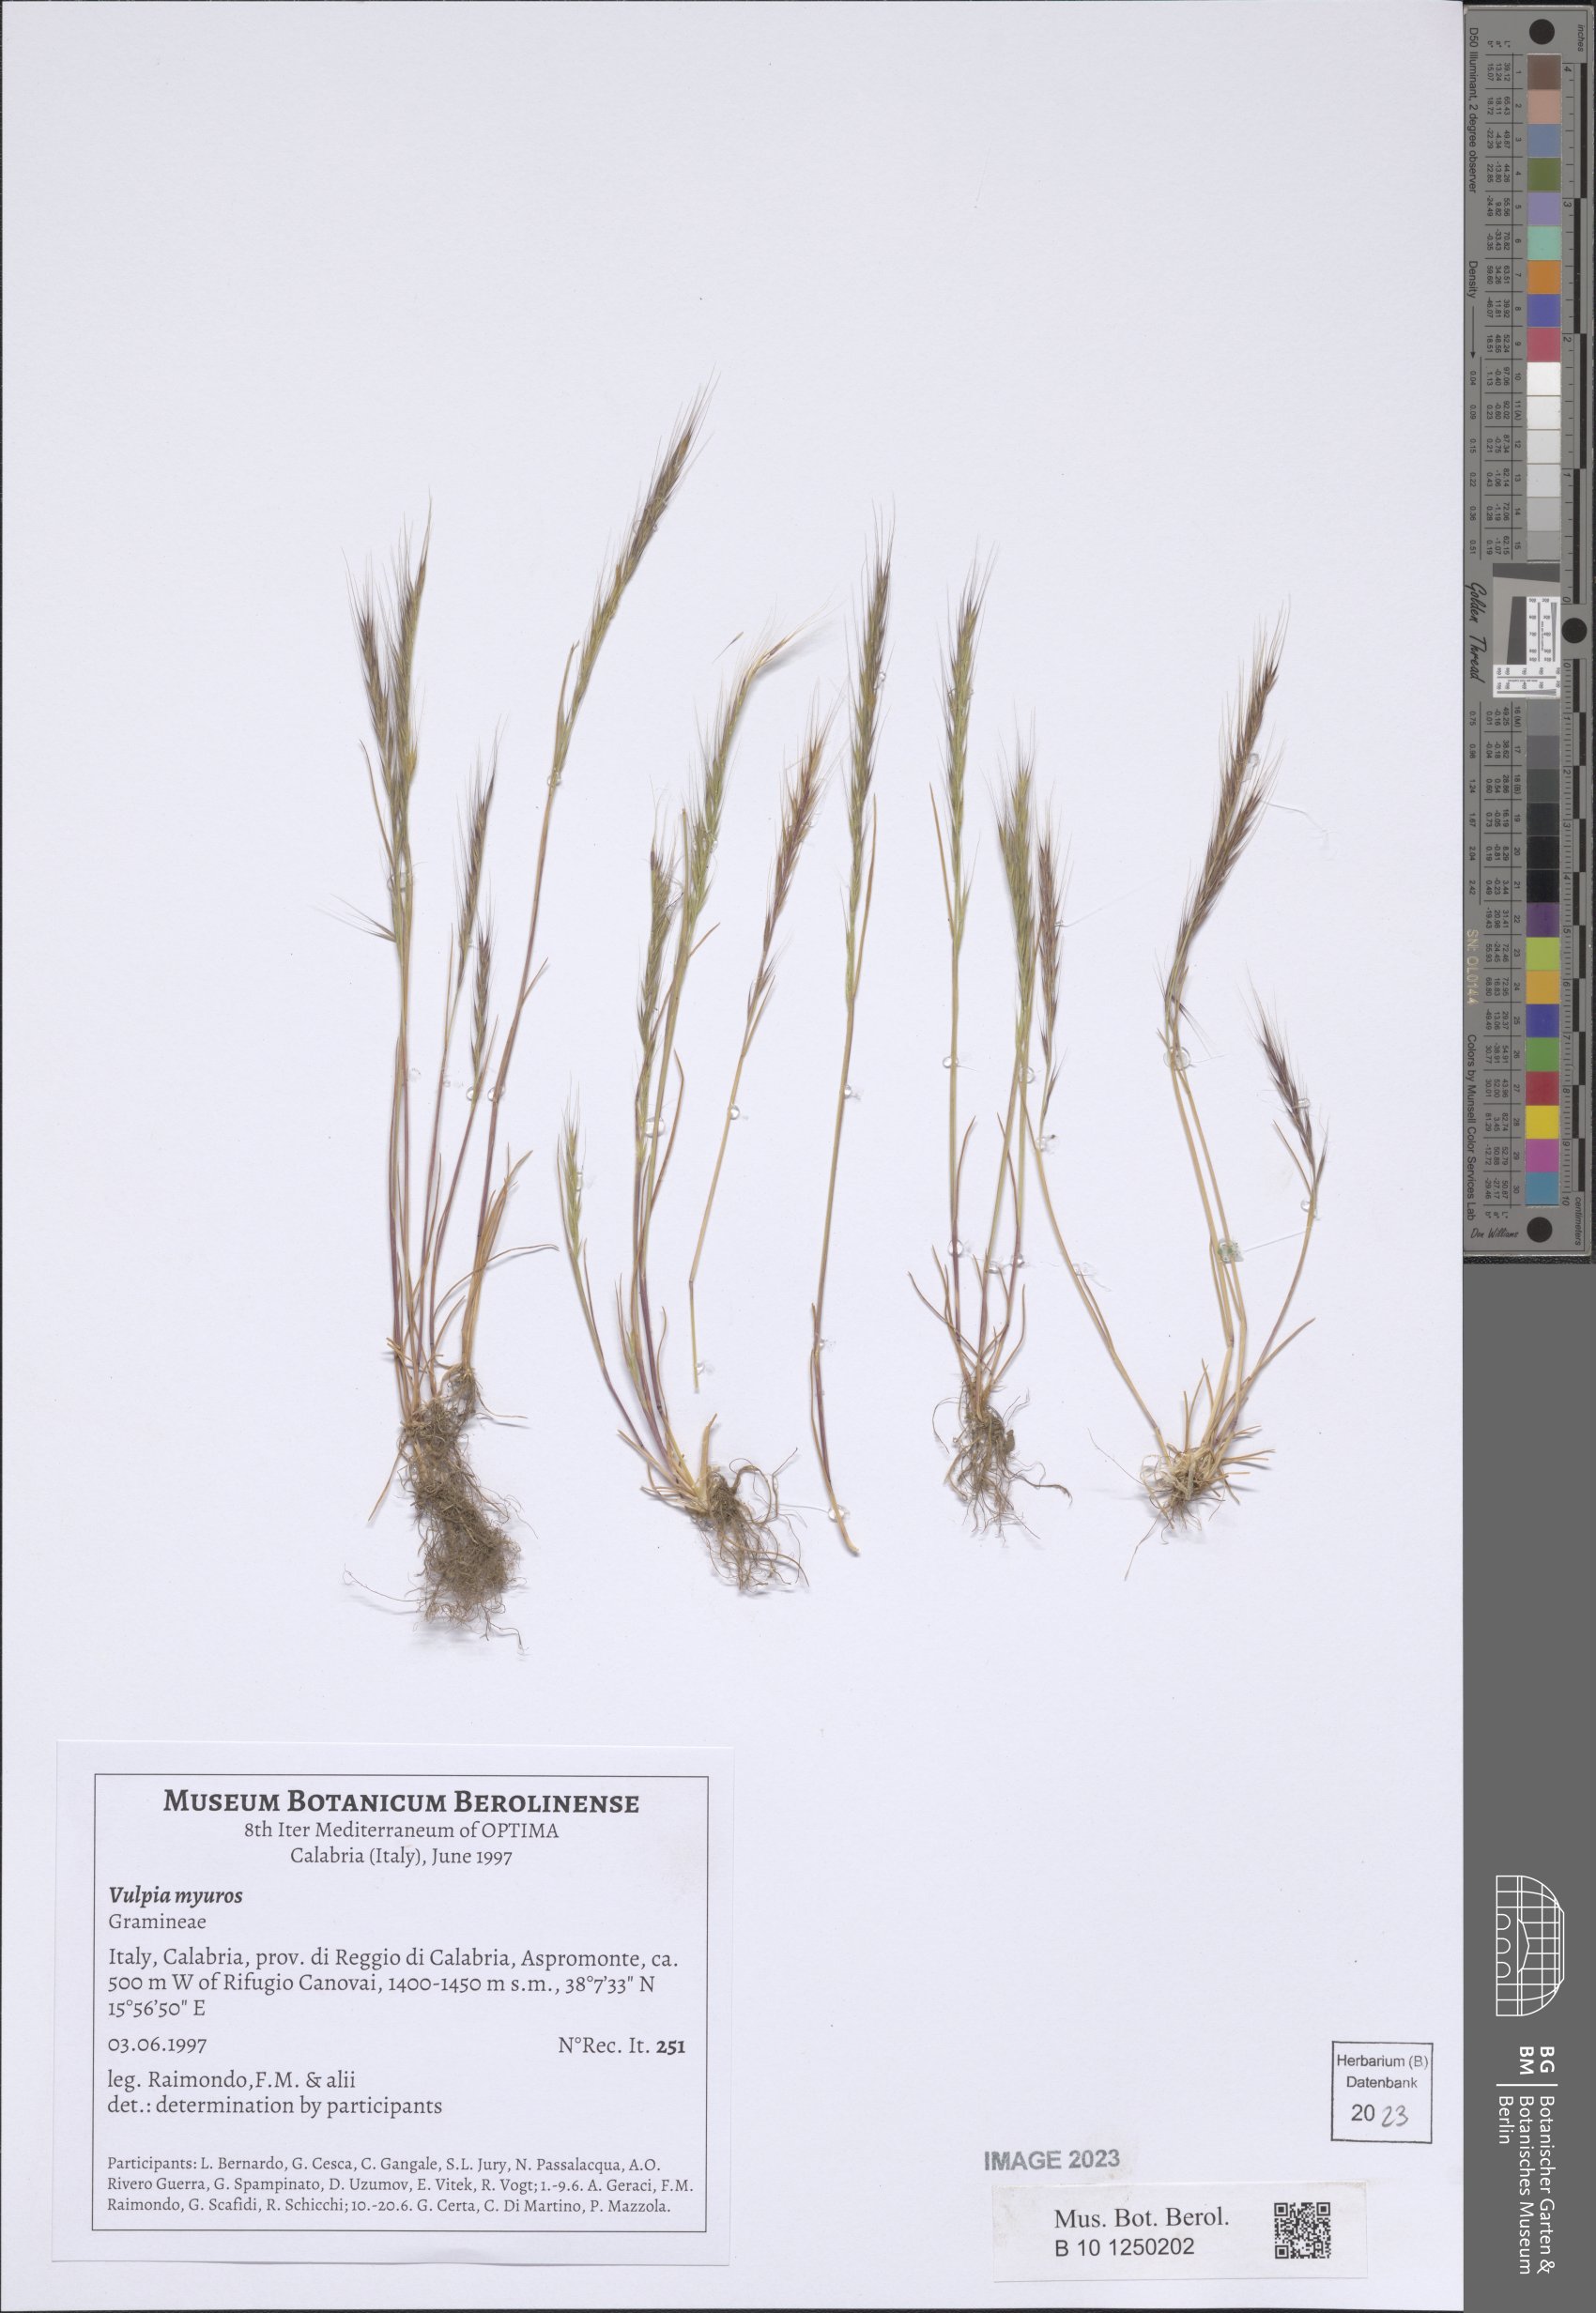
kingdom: Plantae
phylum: Tracheophyta
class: Liliopsida
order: Poales
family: Poaceae
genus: Festuca
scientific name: Festuca myuros
